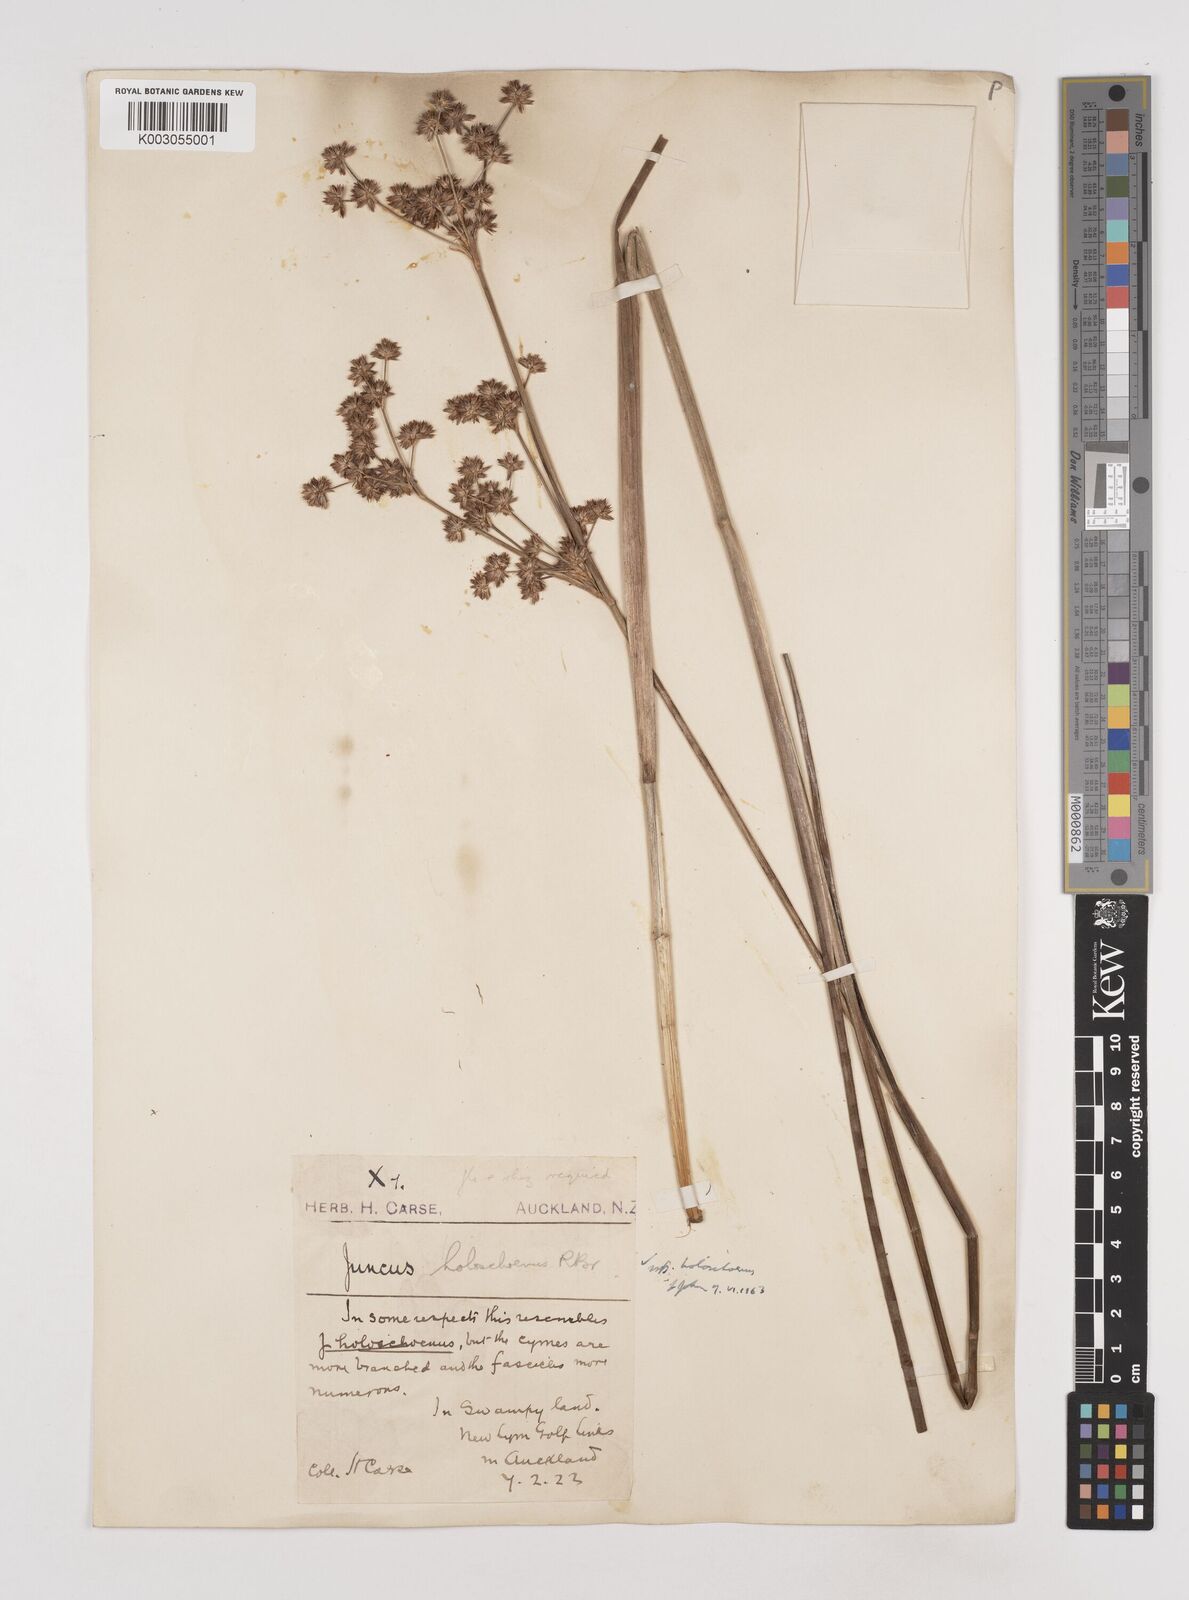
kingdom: Plantae
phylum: Tracheophyta
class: Liliopsida
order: Poales
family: Juncaceae
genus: Juncus
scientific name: Juncus holoschoenus
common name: Joint-leaf rush
